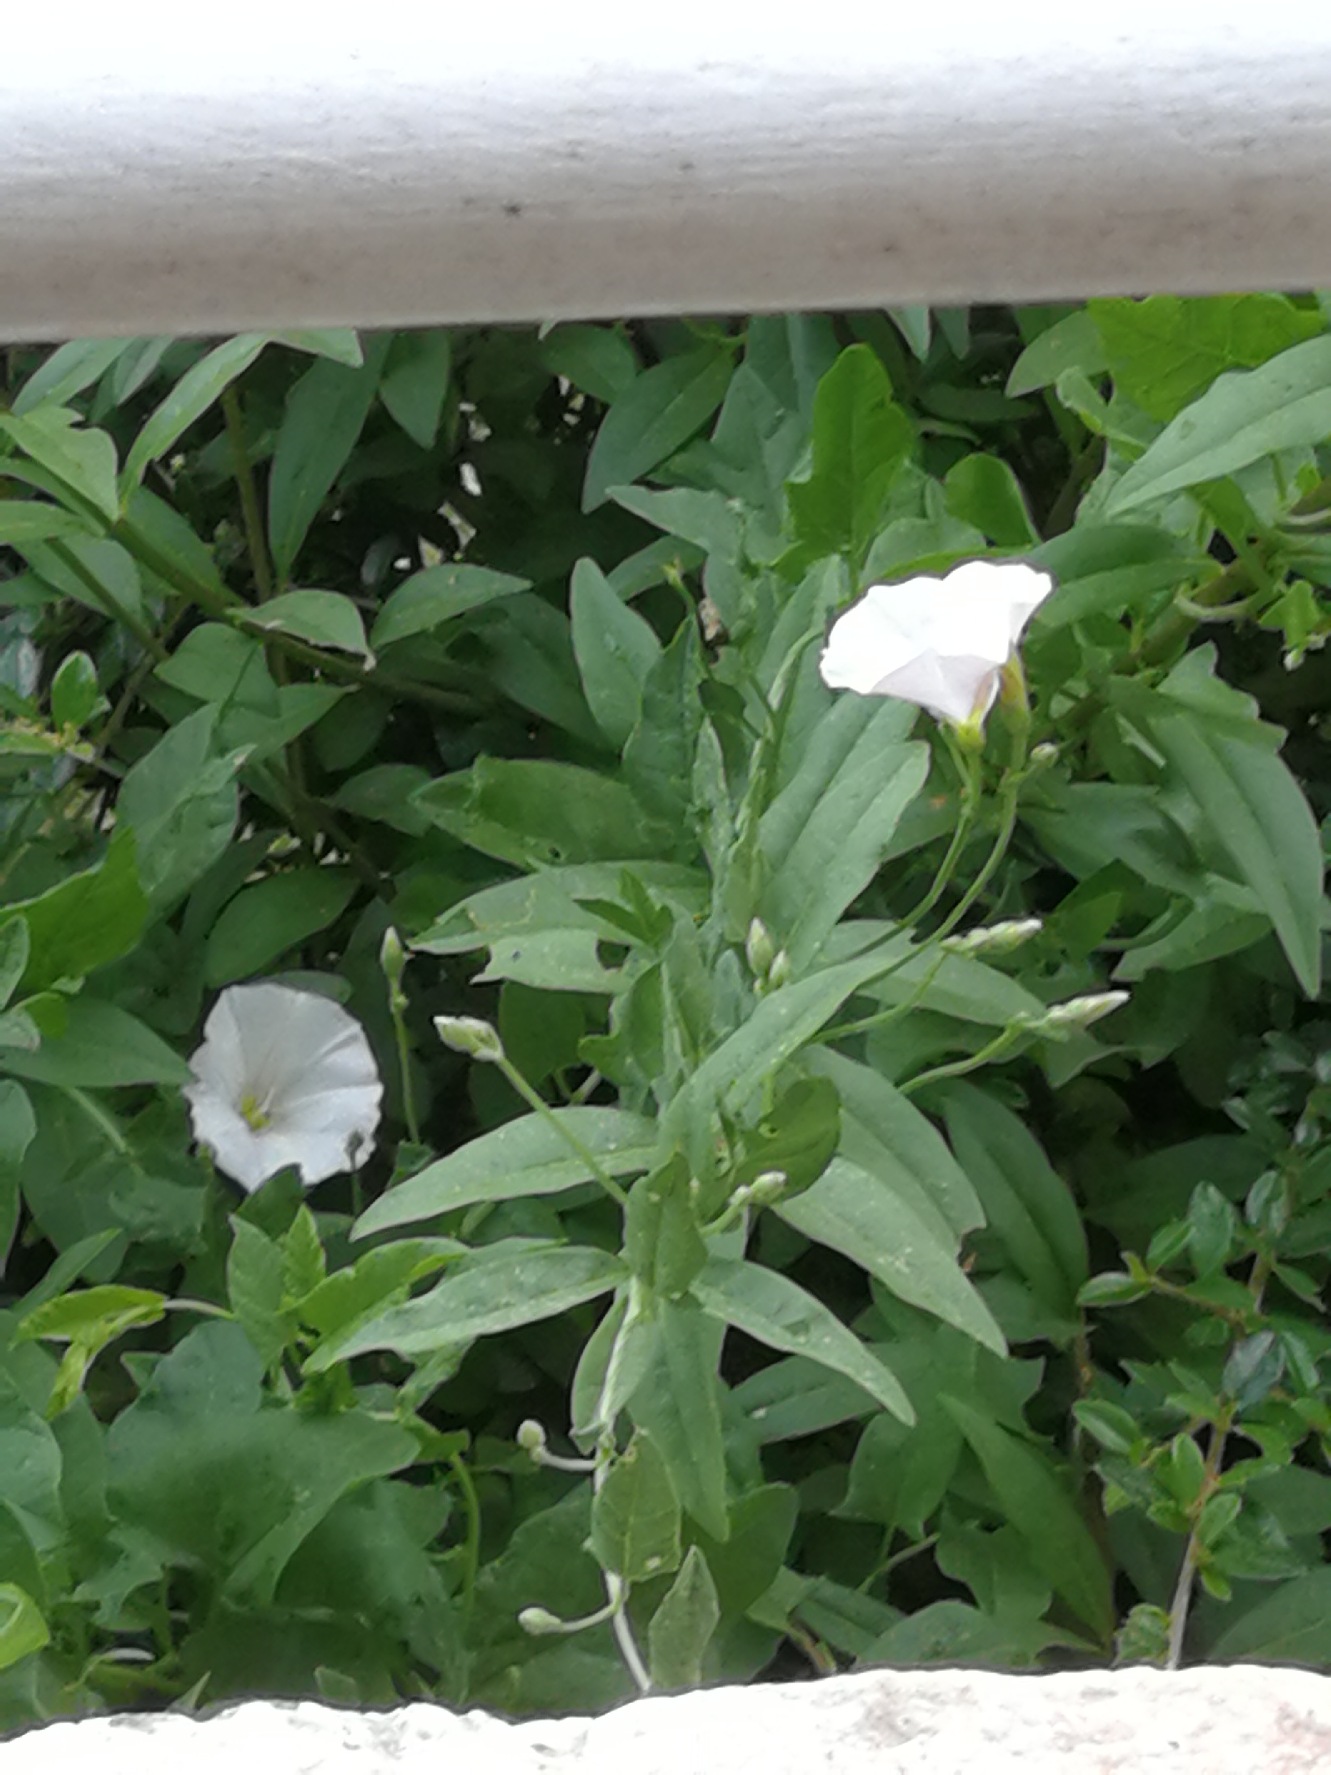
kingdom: Plantae
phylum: Tracheophyta
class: Magnoliopsida
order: Solanales
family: Convolvulaceae
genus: Convolvulus
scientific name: Convolvulus arvensis
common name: Ager-snerle
